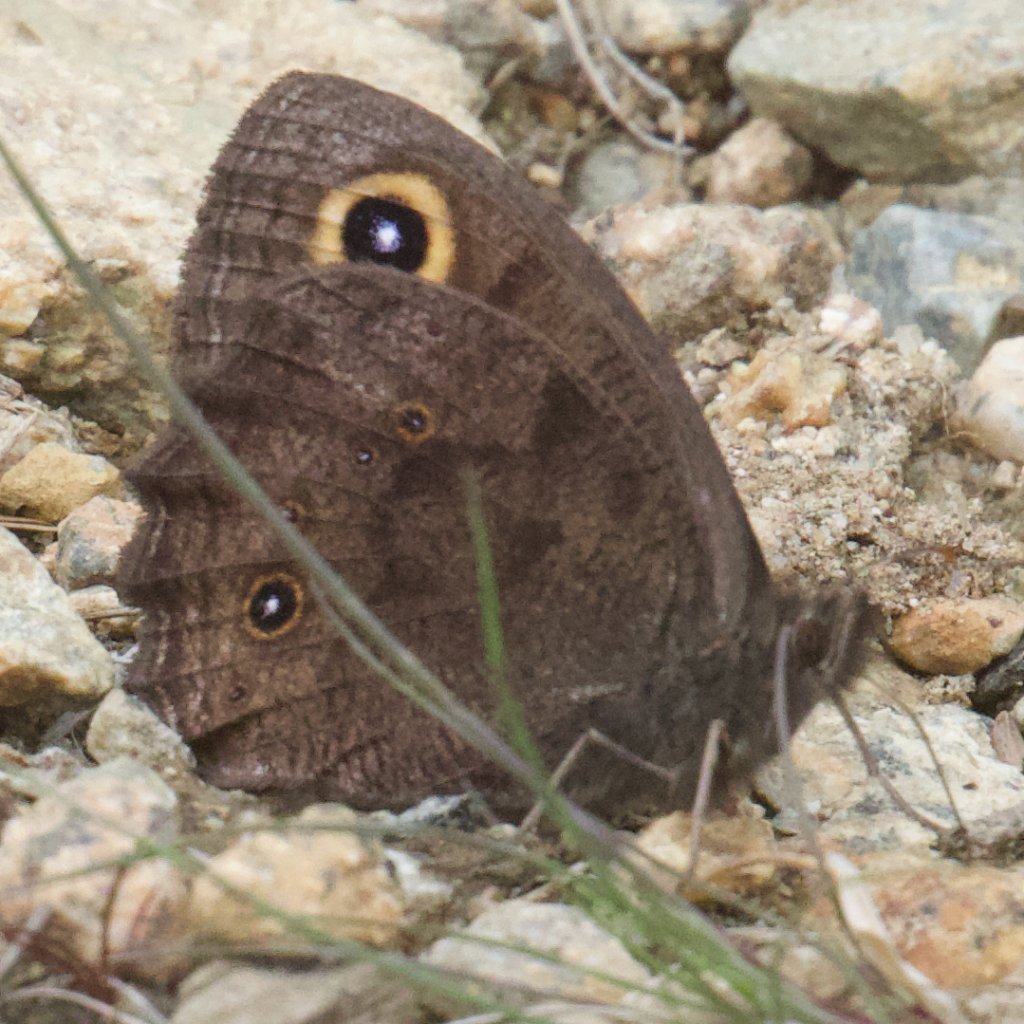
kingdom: Animalia
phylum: Arthropoda
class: Insecta
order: Lepidoptera
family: Nymphalidae
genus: Cercyonis
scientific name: Cercyonis pegala
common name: Common Wood-Nymph
